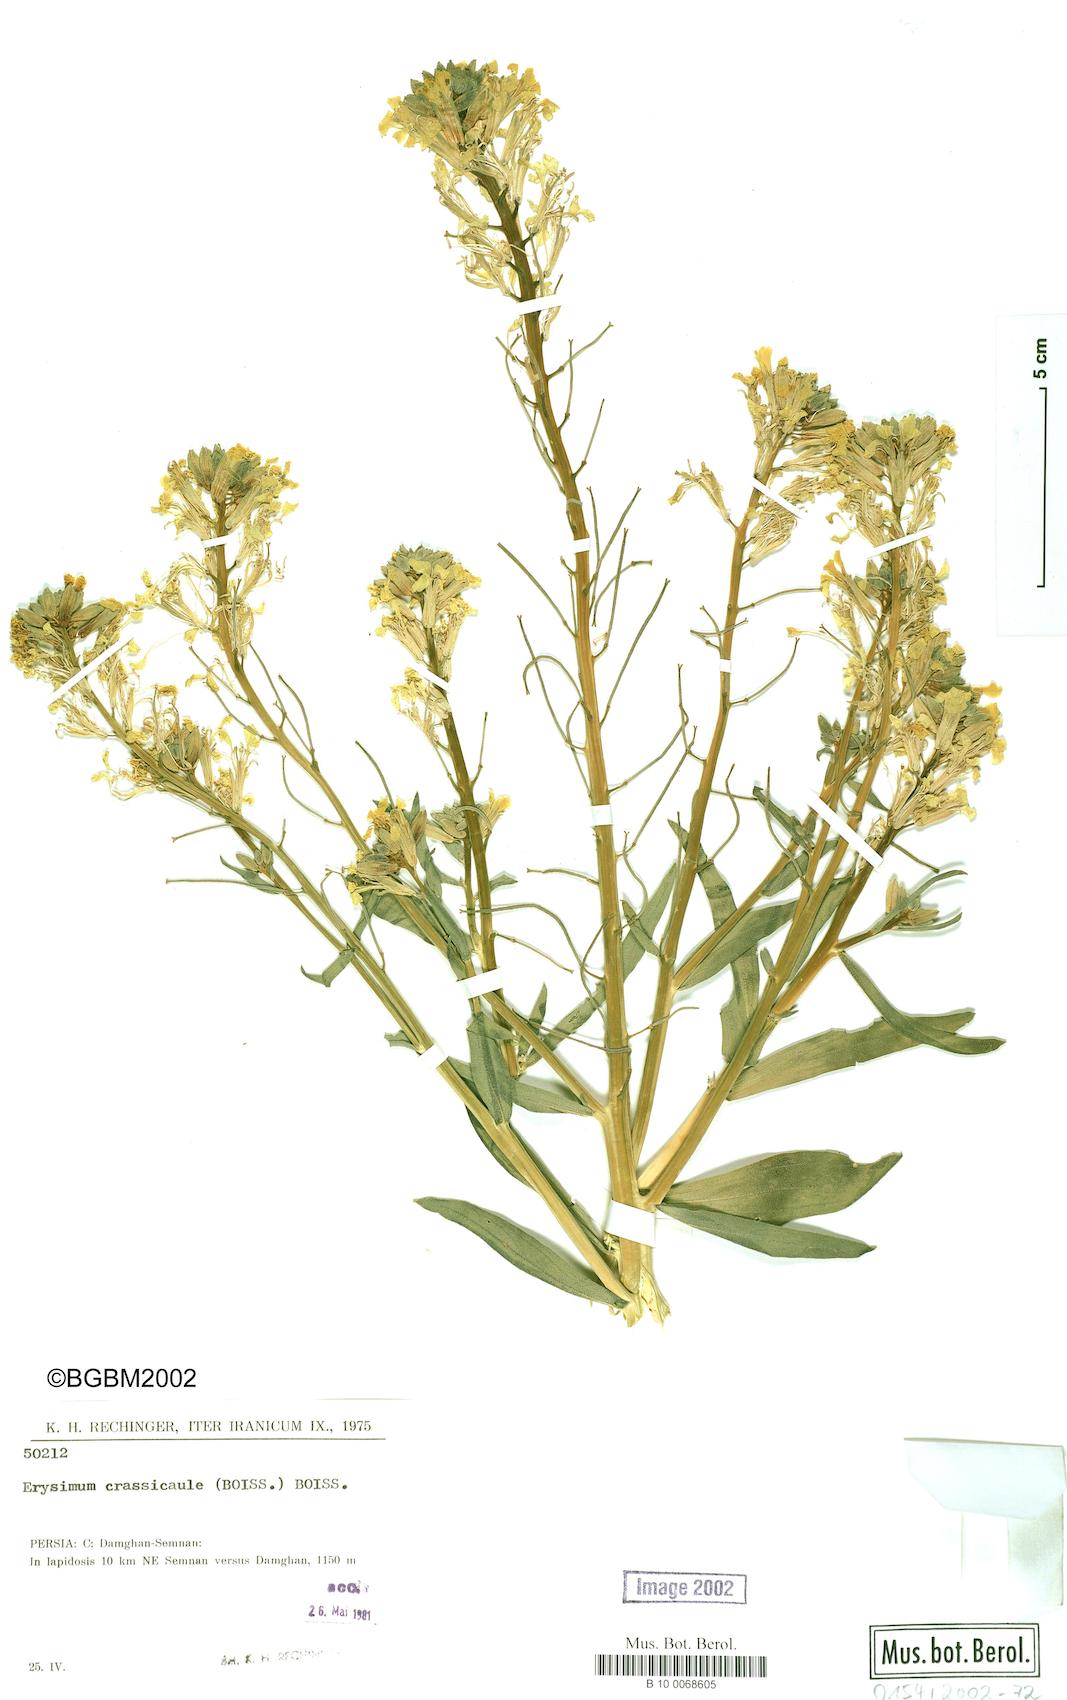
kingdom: Plantae
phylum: Tracheophyta
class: Magnoliopsida
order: Brassicales
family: Brassicaceae
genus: Erysimum
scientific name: Erysimum crassicaule
